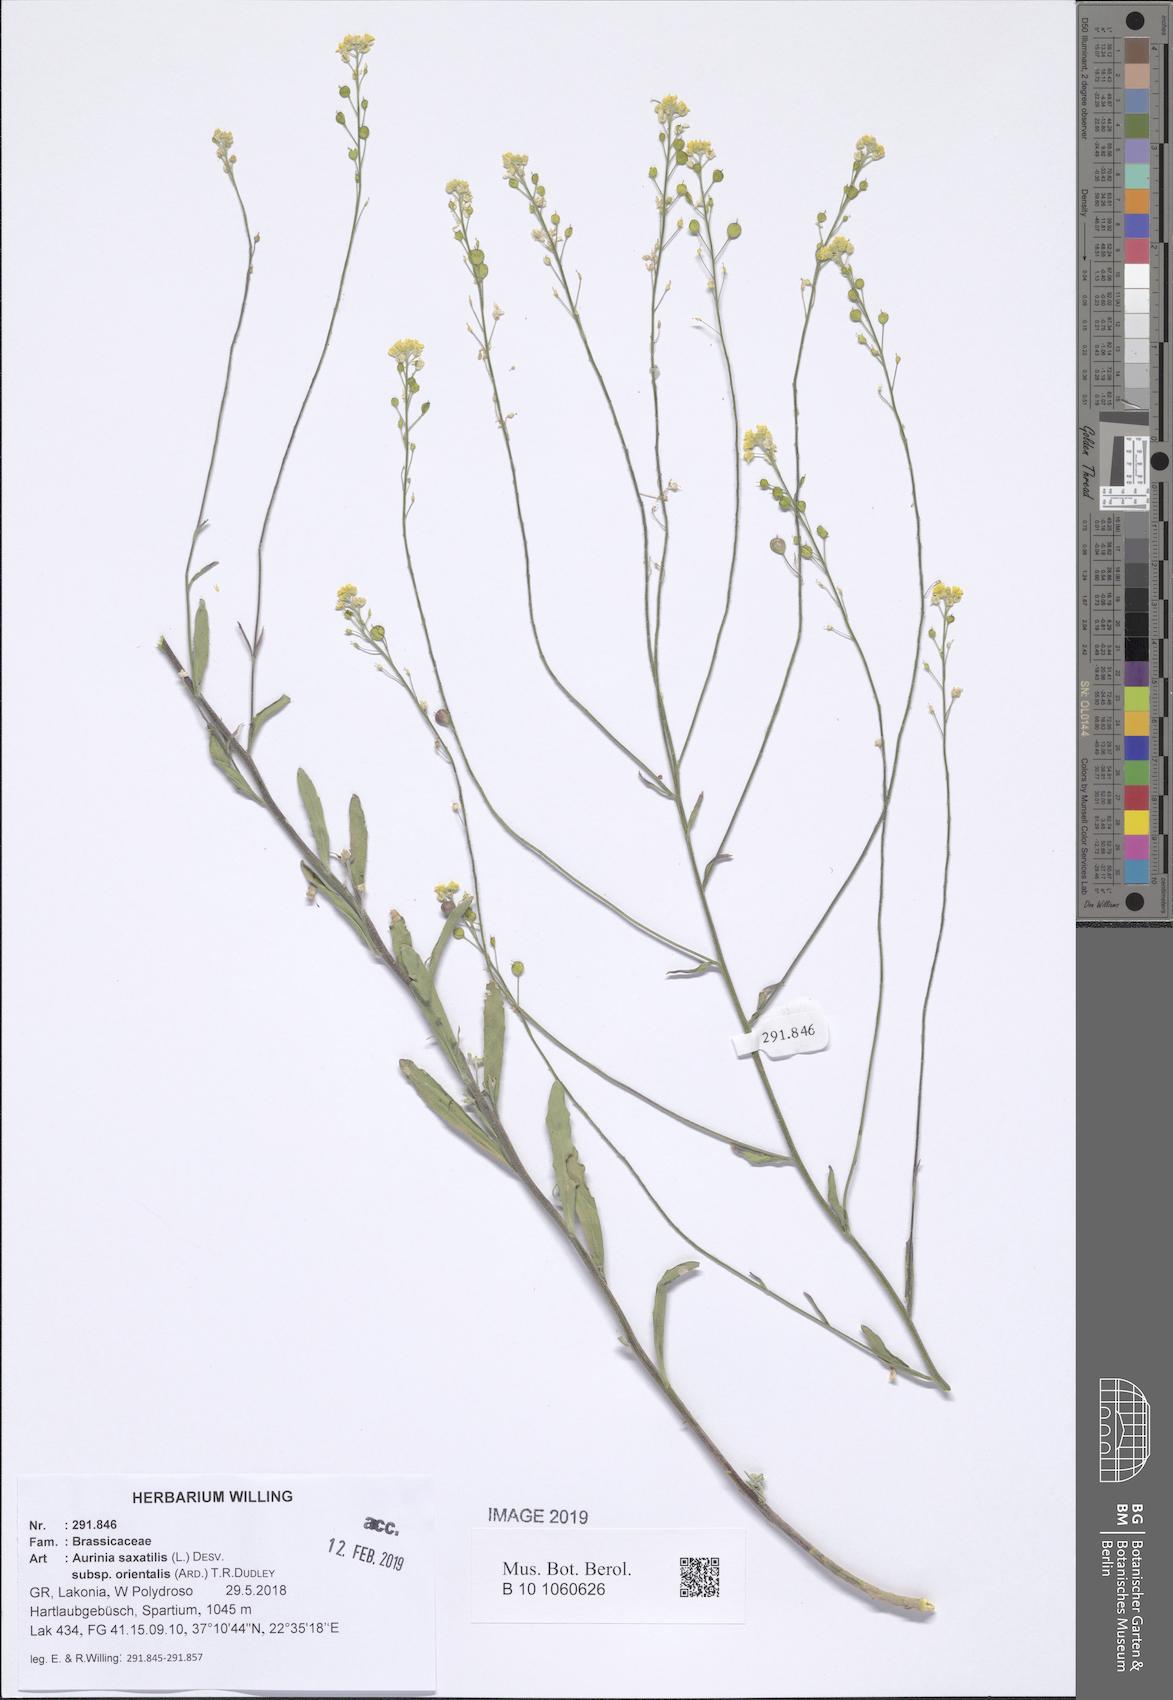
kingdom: Plantae
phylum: Tracheophyta
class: Magnoliopsida
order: Brassicales
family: Brassicaceae
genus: Aurinia
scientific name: Aurinia saxatilis
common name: Golden-tuft alyssum
